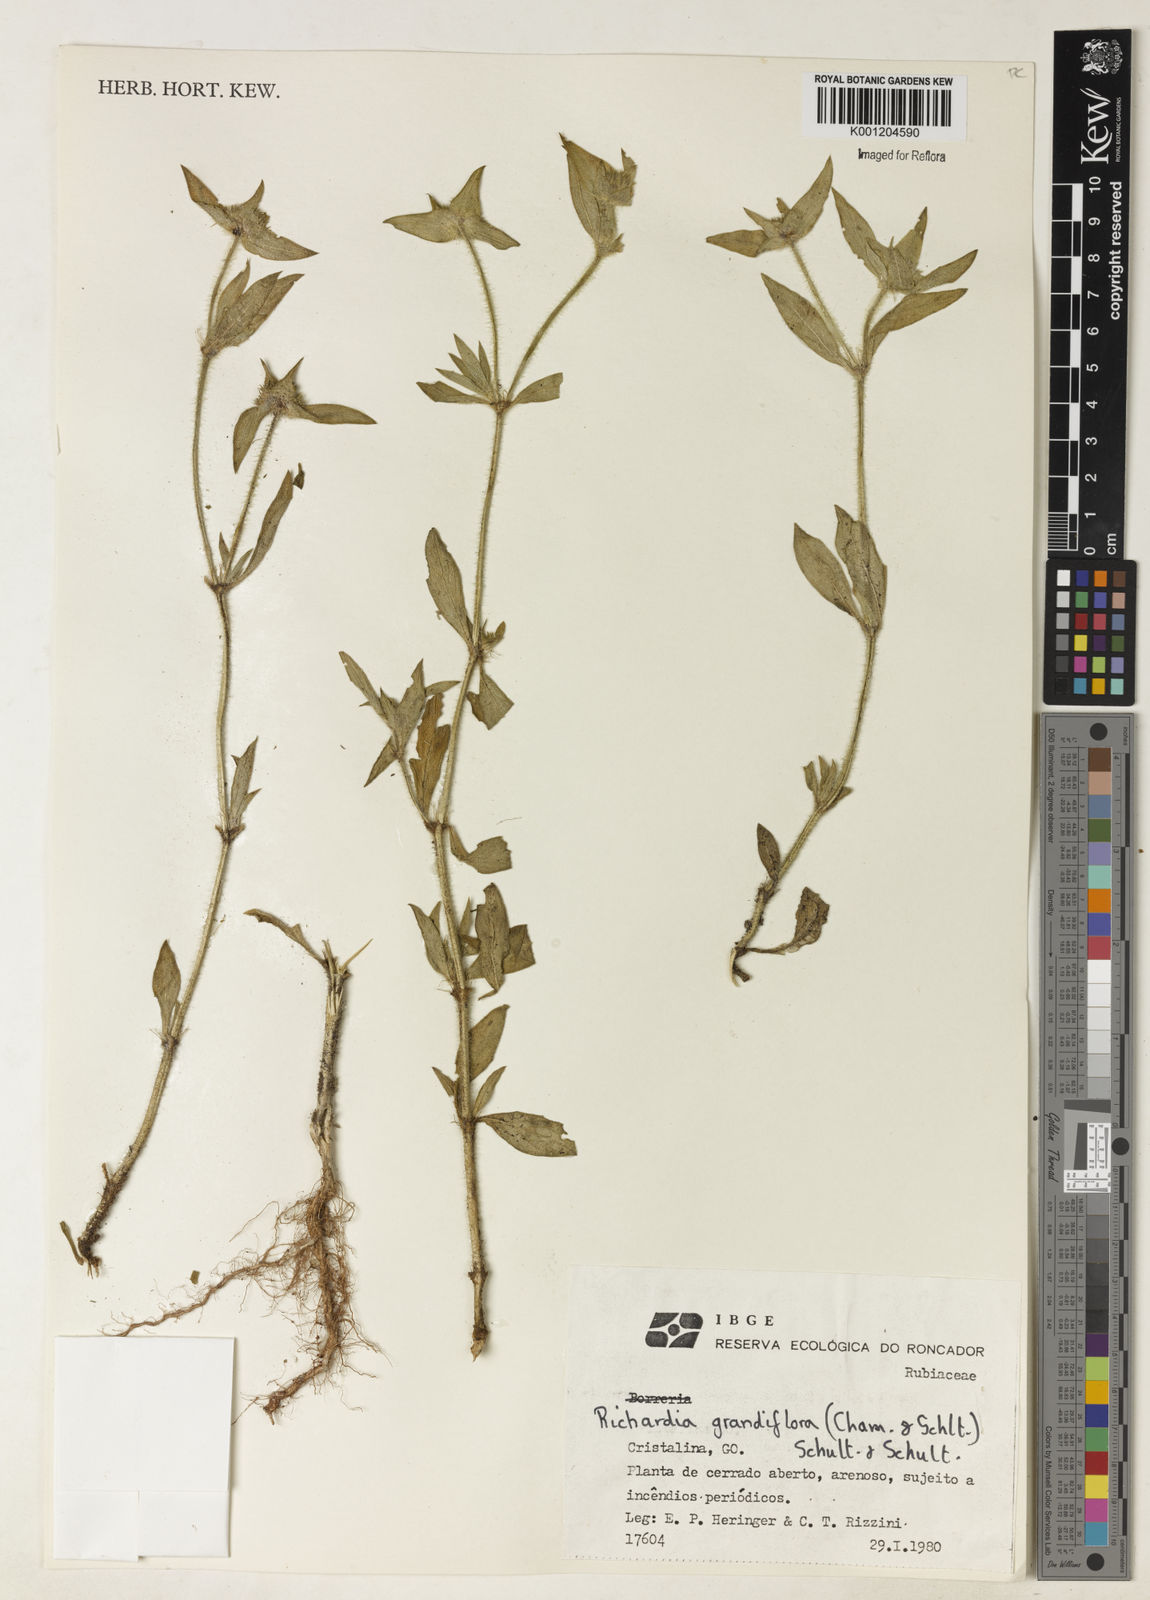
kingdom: Plantae
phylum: Tracheophyta
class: Magnoliopsida
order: Gentianales
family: Rubiaceae
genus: Richardia
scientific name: Richardia grandiflora
